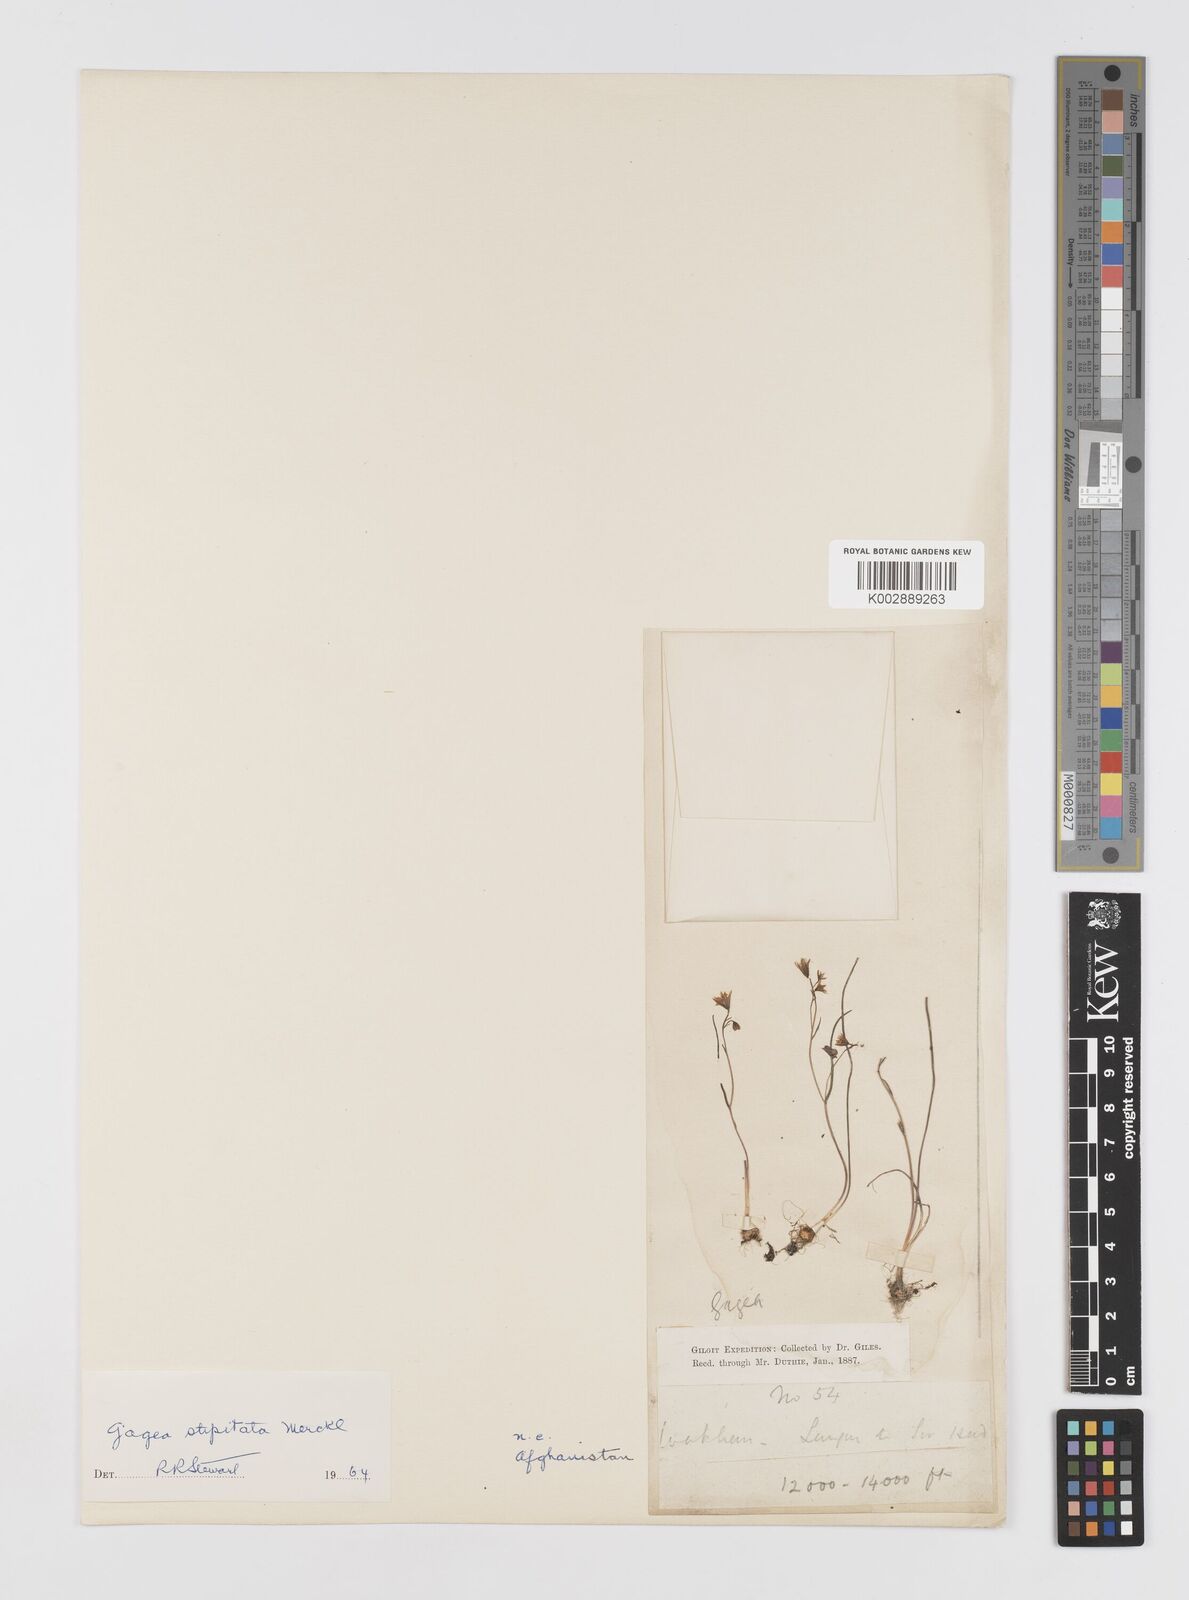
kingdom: Plantae
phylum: Tracheophyta
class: Liliopsida
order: Liliales
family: Liliaceae
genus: Gagea
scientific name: Gagea kunawurensis
